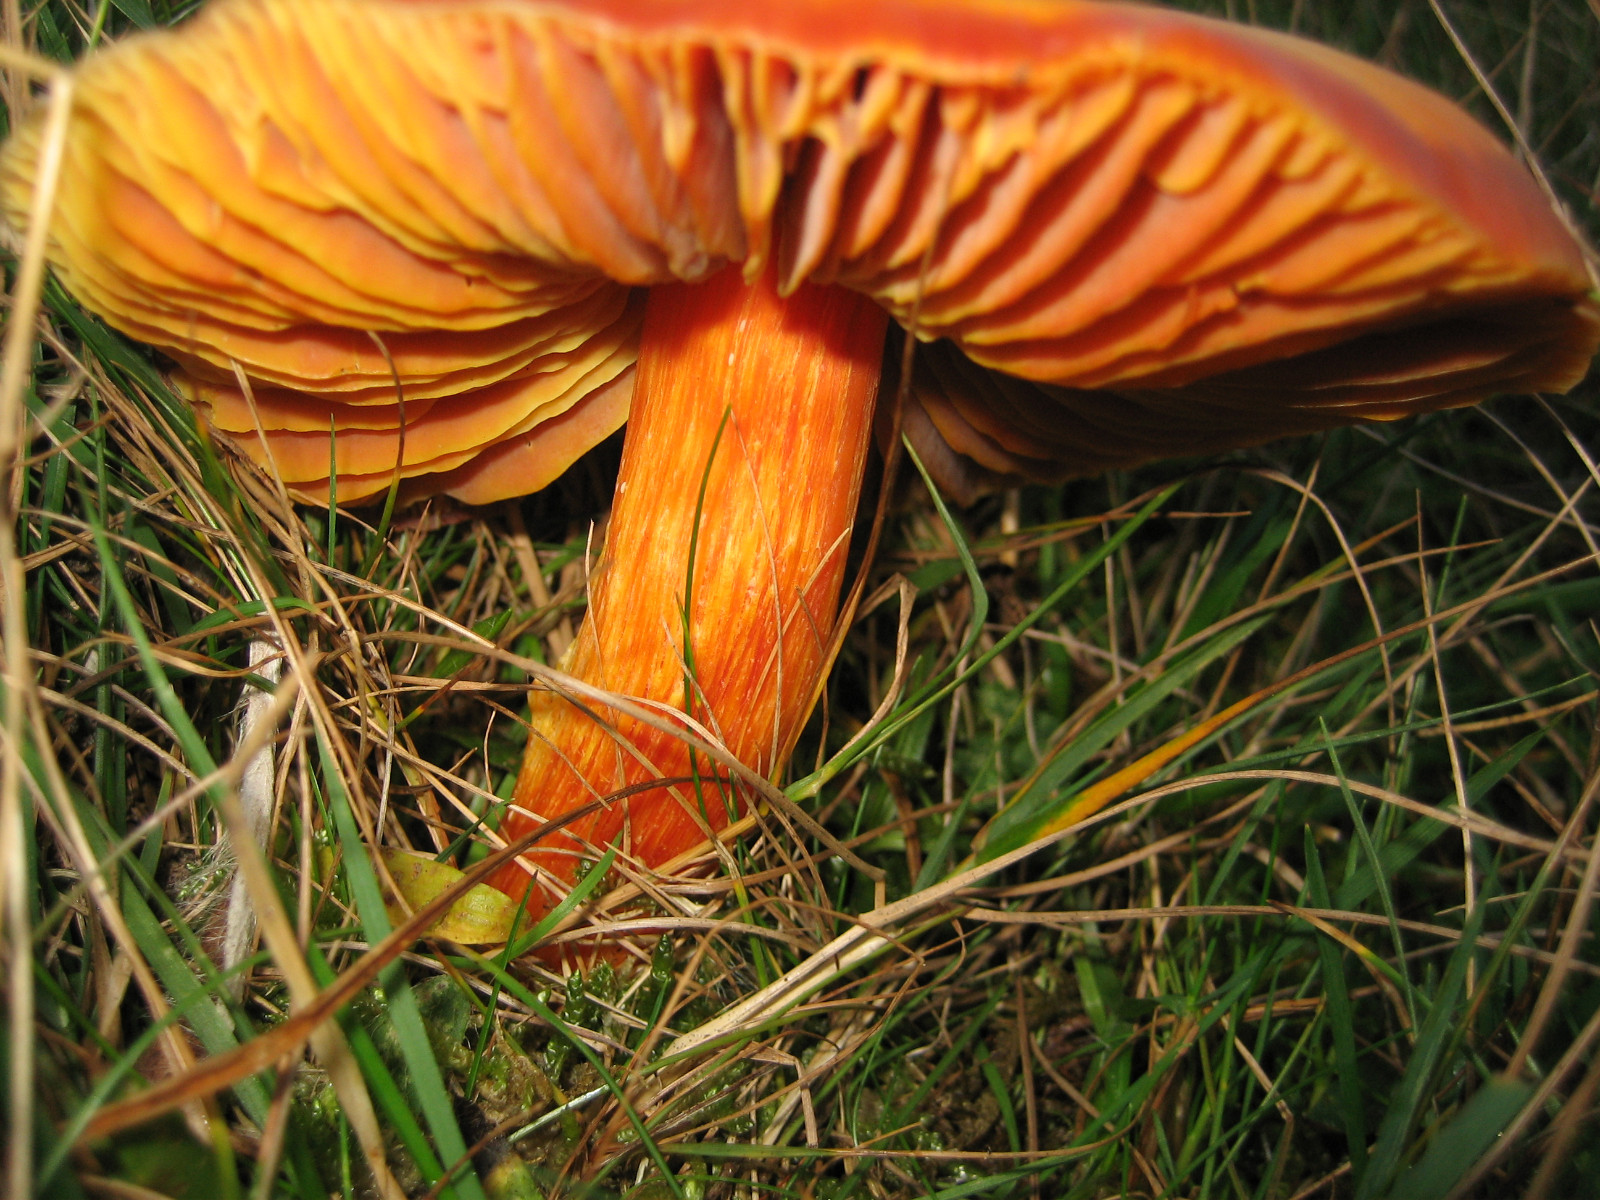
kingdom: Fungi
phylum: Basidiomycota
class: Agaricomycetes
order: Agaricales
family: Hygrophoraceae
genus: Hygrocybe
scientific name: Hygrocybe punicea
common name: skarlagen-vokshat
